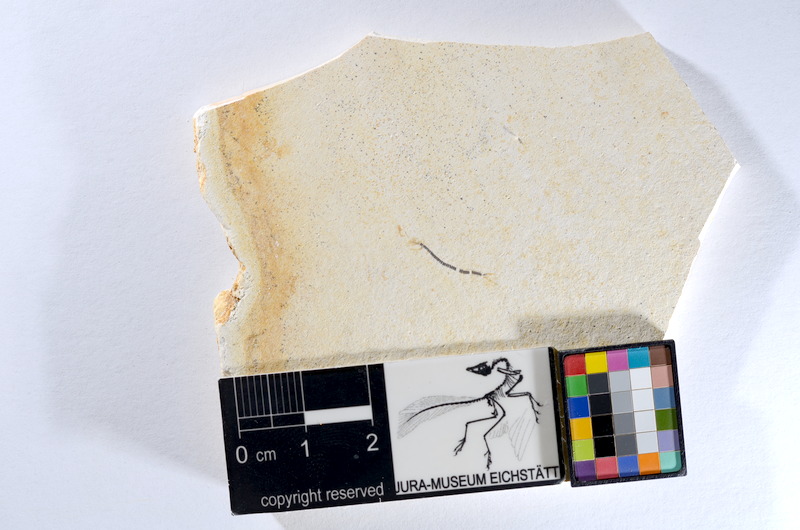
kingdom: Animalia
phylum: Chordata
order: Salmoniformes
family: Orthogonikleithridae
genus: Orthogonikleithrus
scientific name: Orthogonikleithrus hoelli
